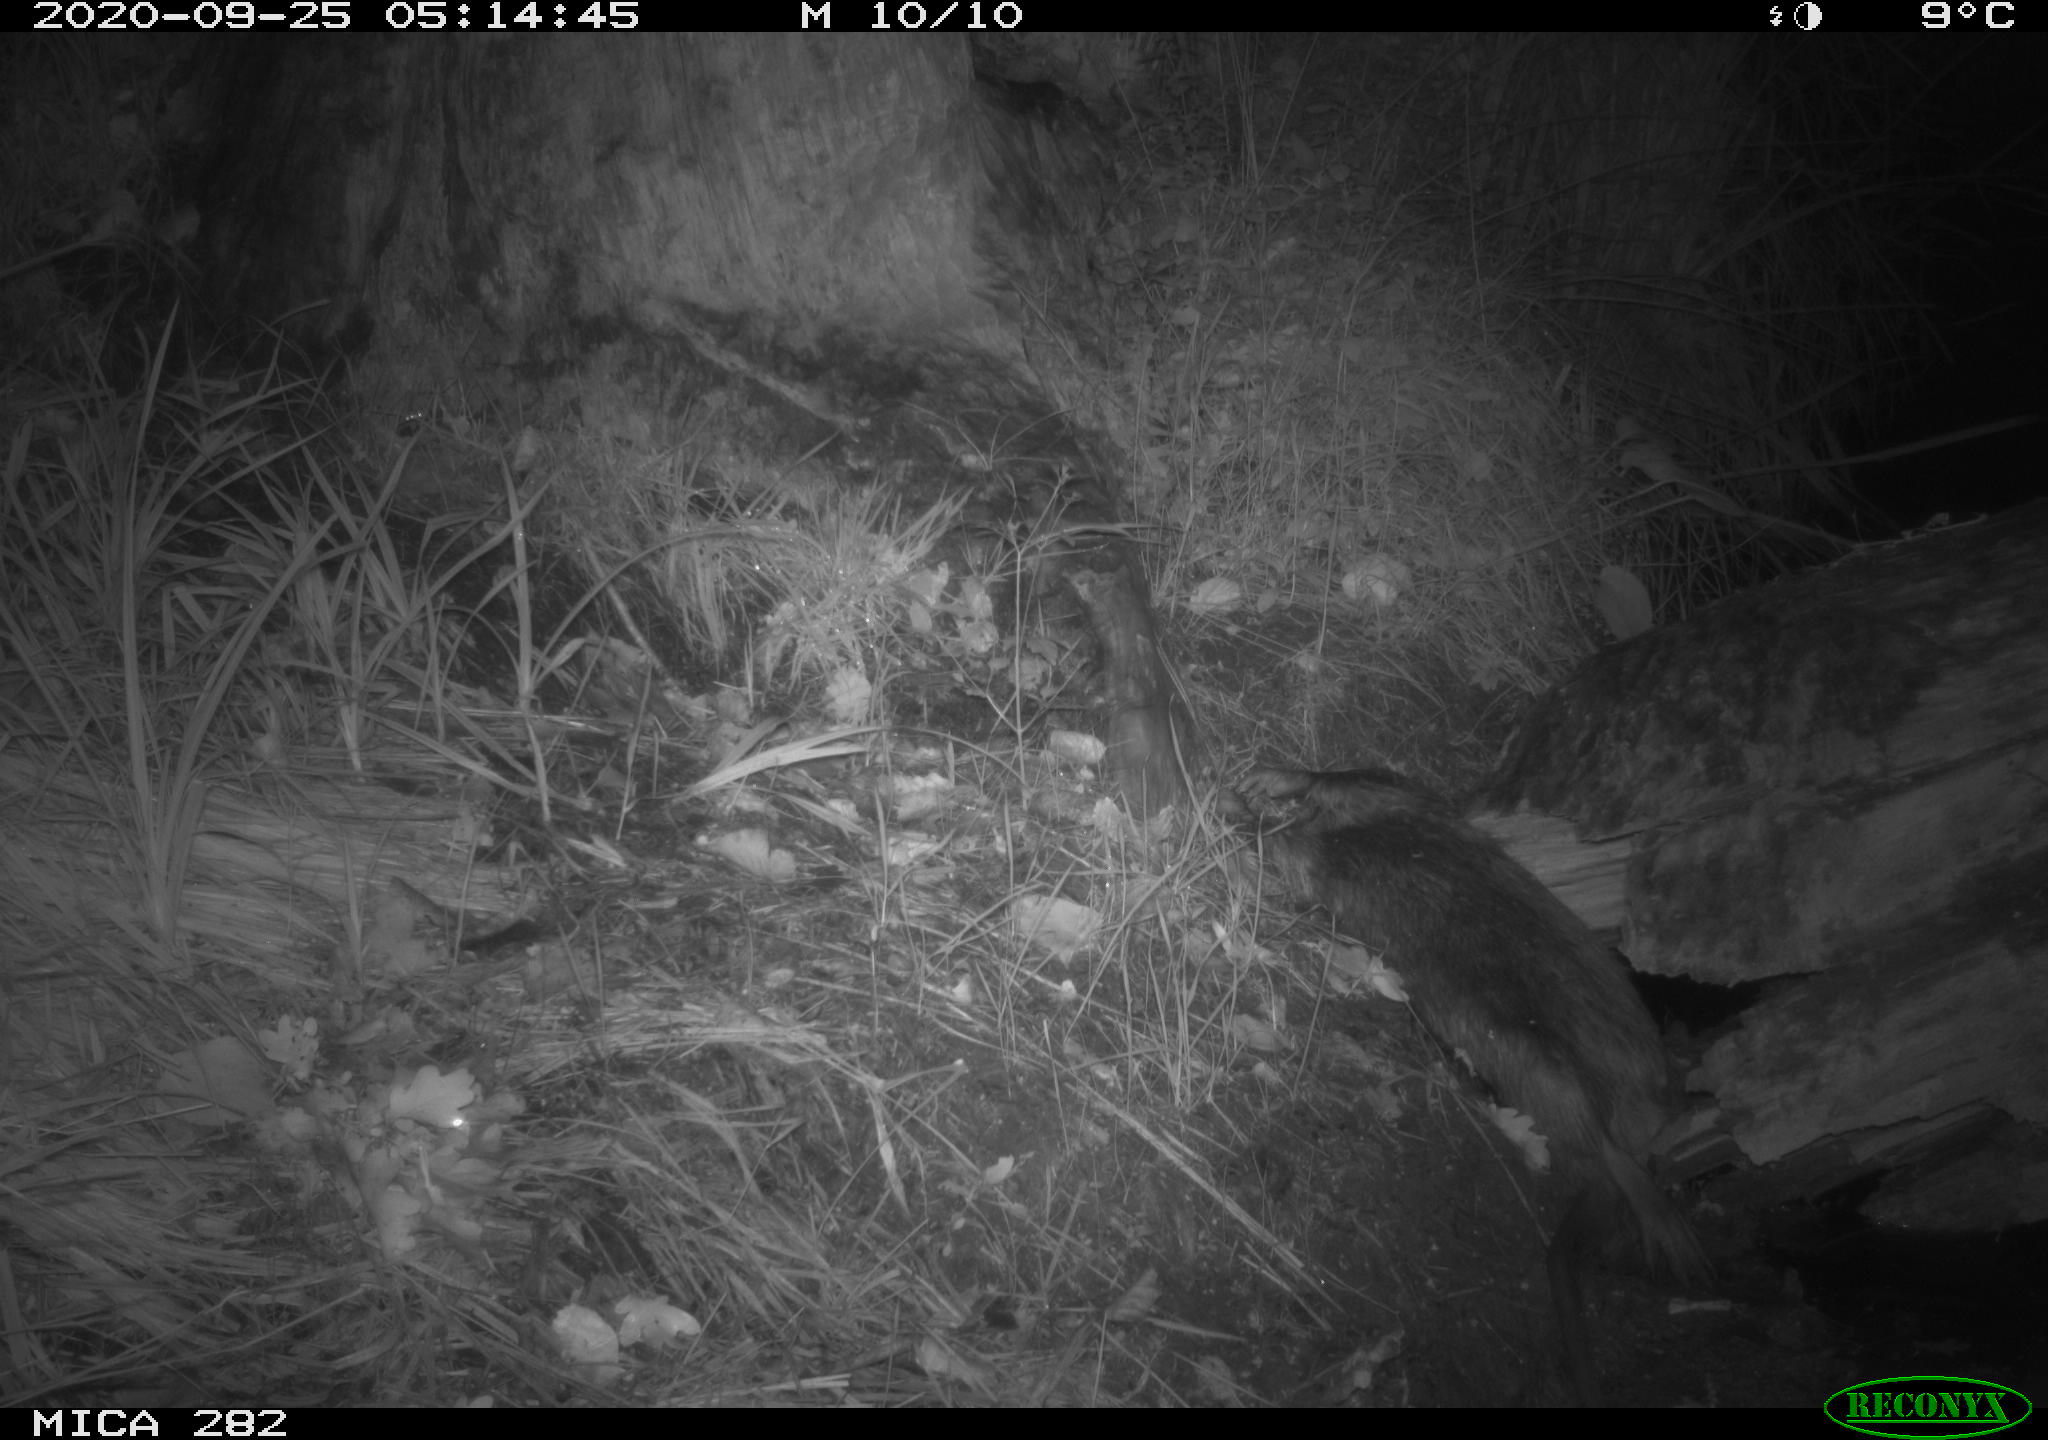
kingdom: Animalia
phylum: Chordata
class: Mammalia
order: Soricomorpha
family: Soricidae
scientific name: Soricidae
